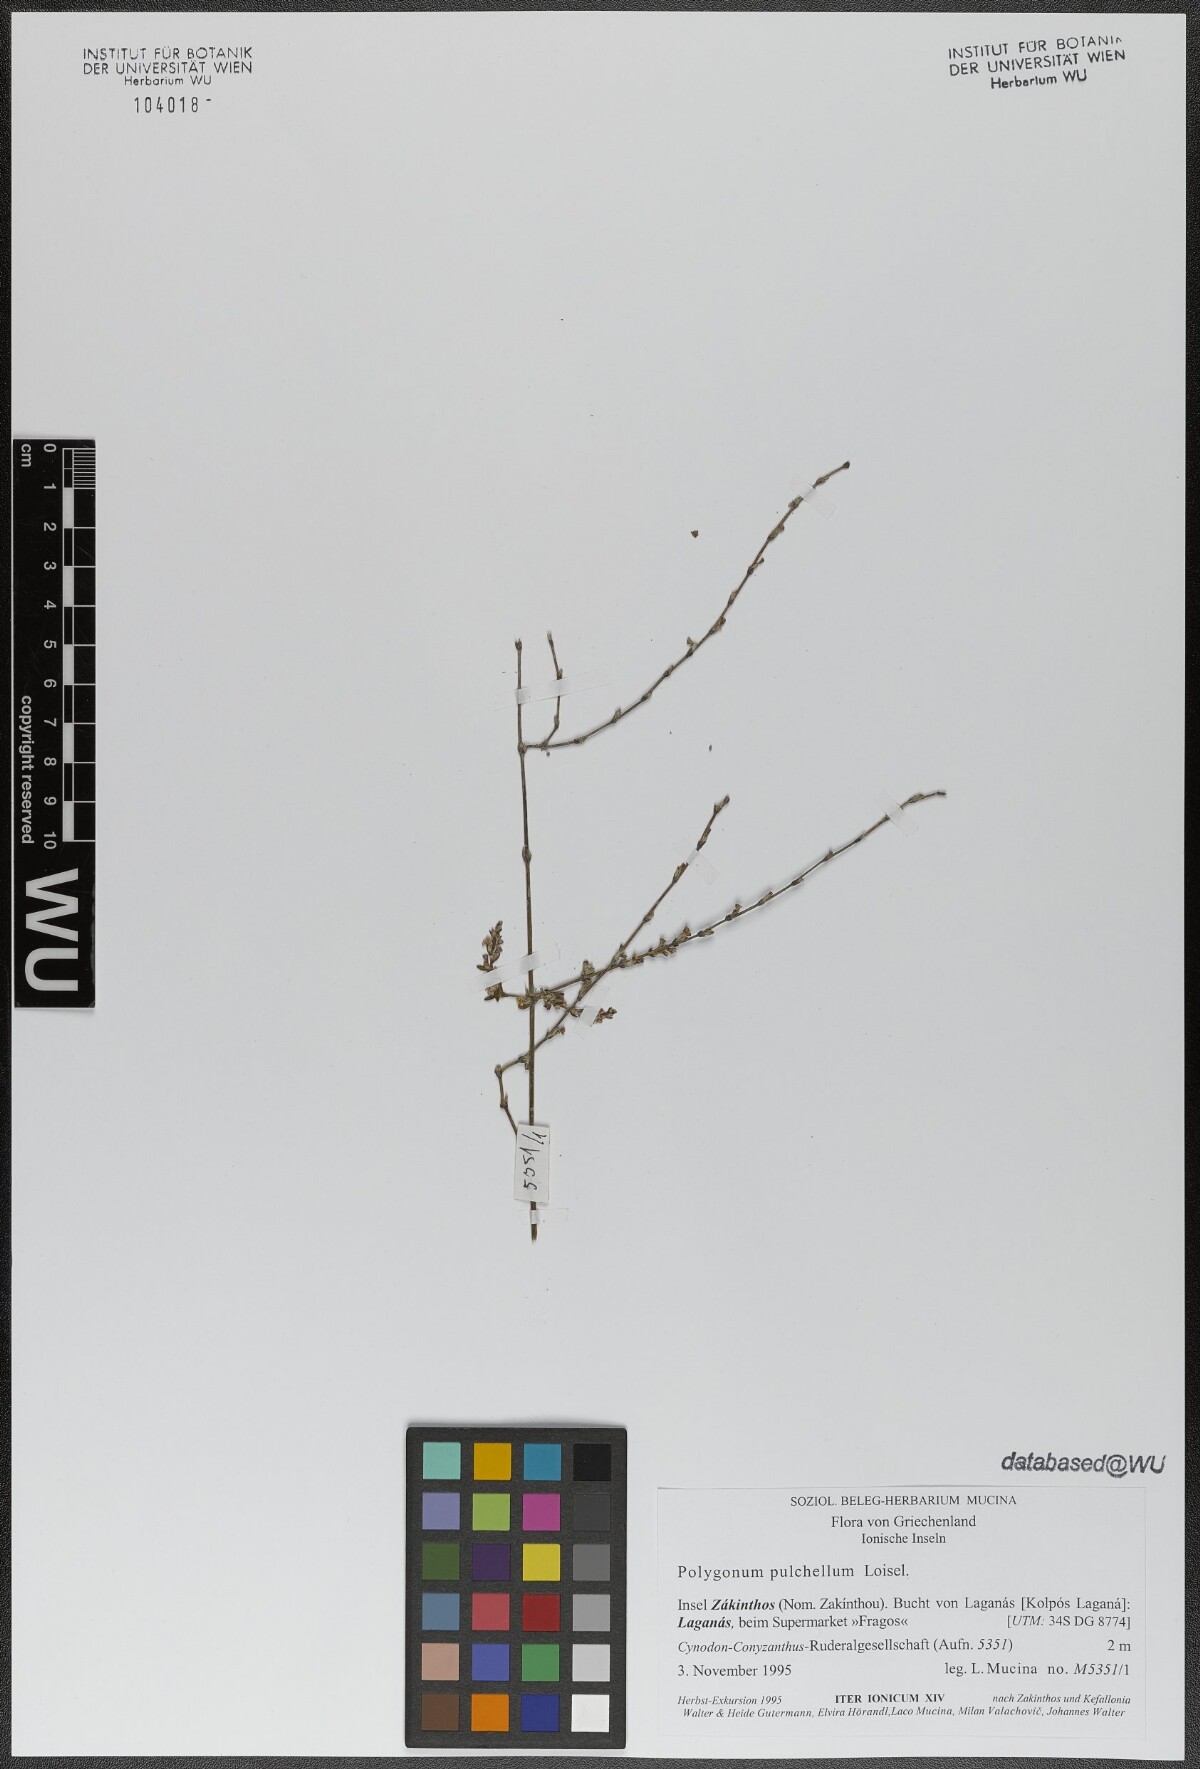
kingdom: Plantae
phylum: Tracheophyta
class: Magnoliopsida
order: Caryophyllales
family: Polygonaceae
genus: Polygonum
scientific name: Polygonum arenarium
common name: Lesser red-knotgrass
